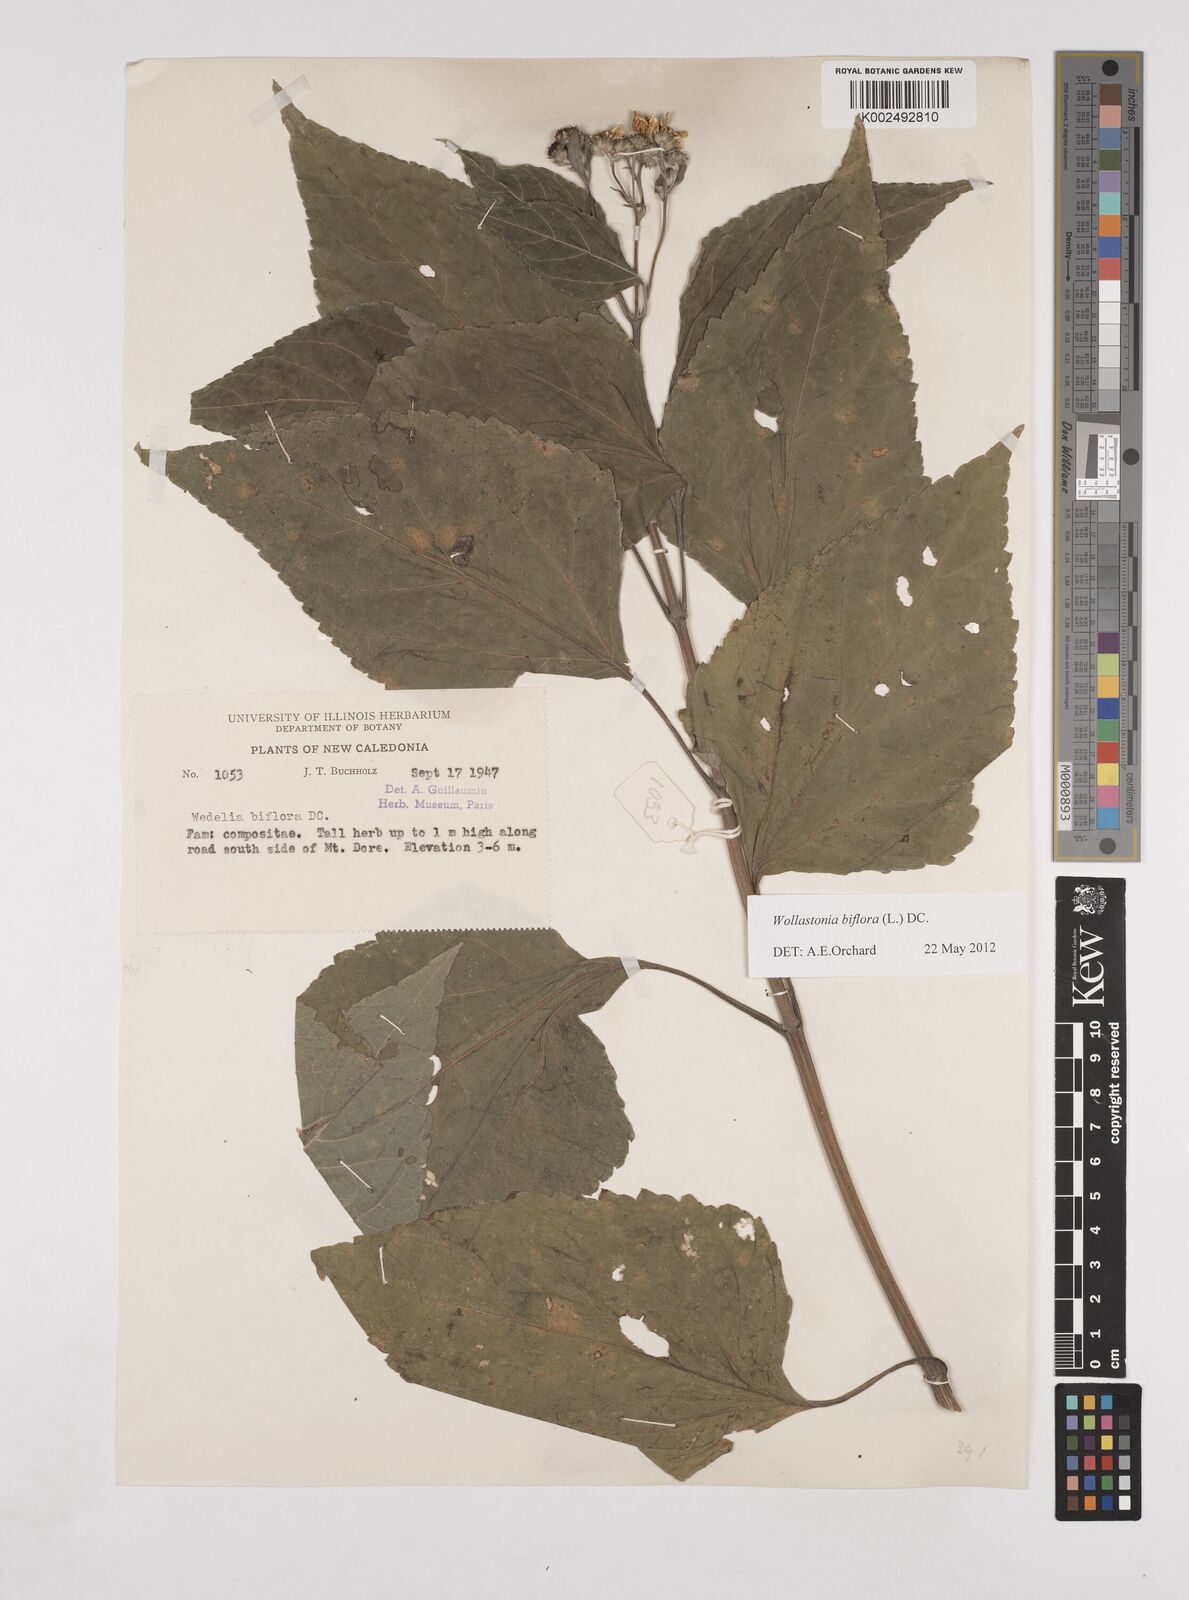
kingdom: Plantae
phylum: Tracheophyta
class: Magnoliopsida
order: Asterales
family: Asteraceae
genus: Wollastonia
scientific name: Wollastonia biflora
